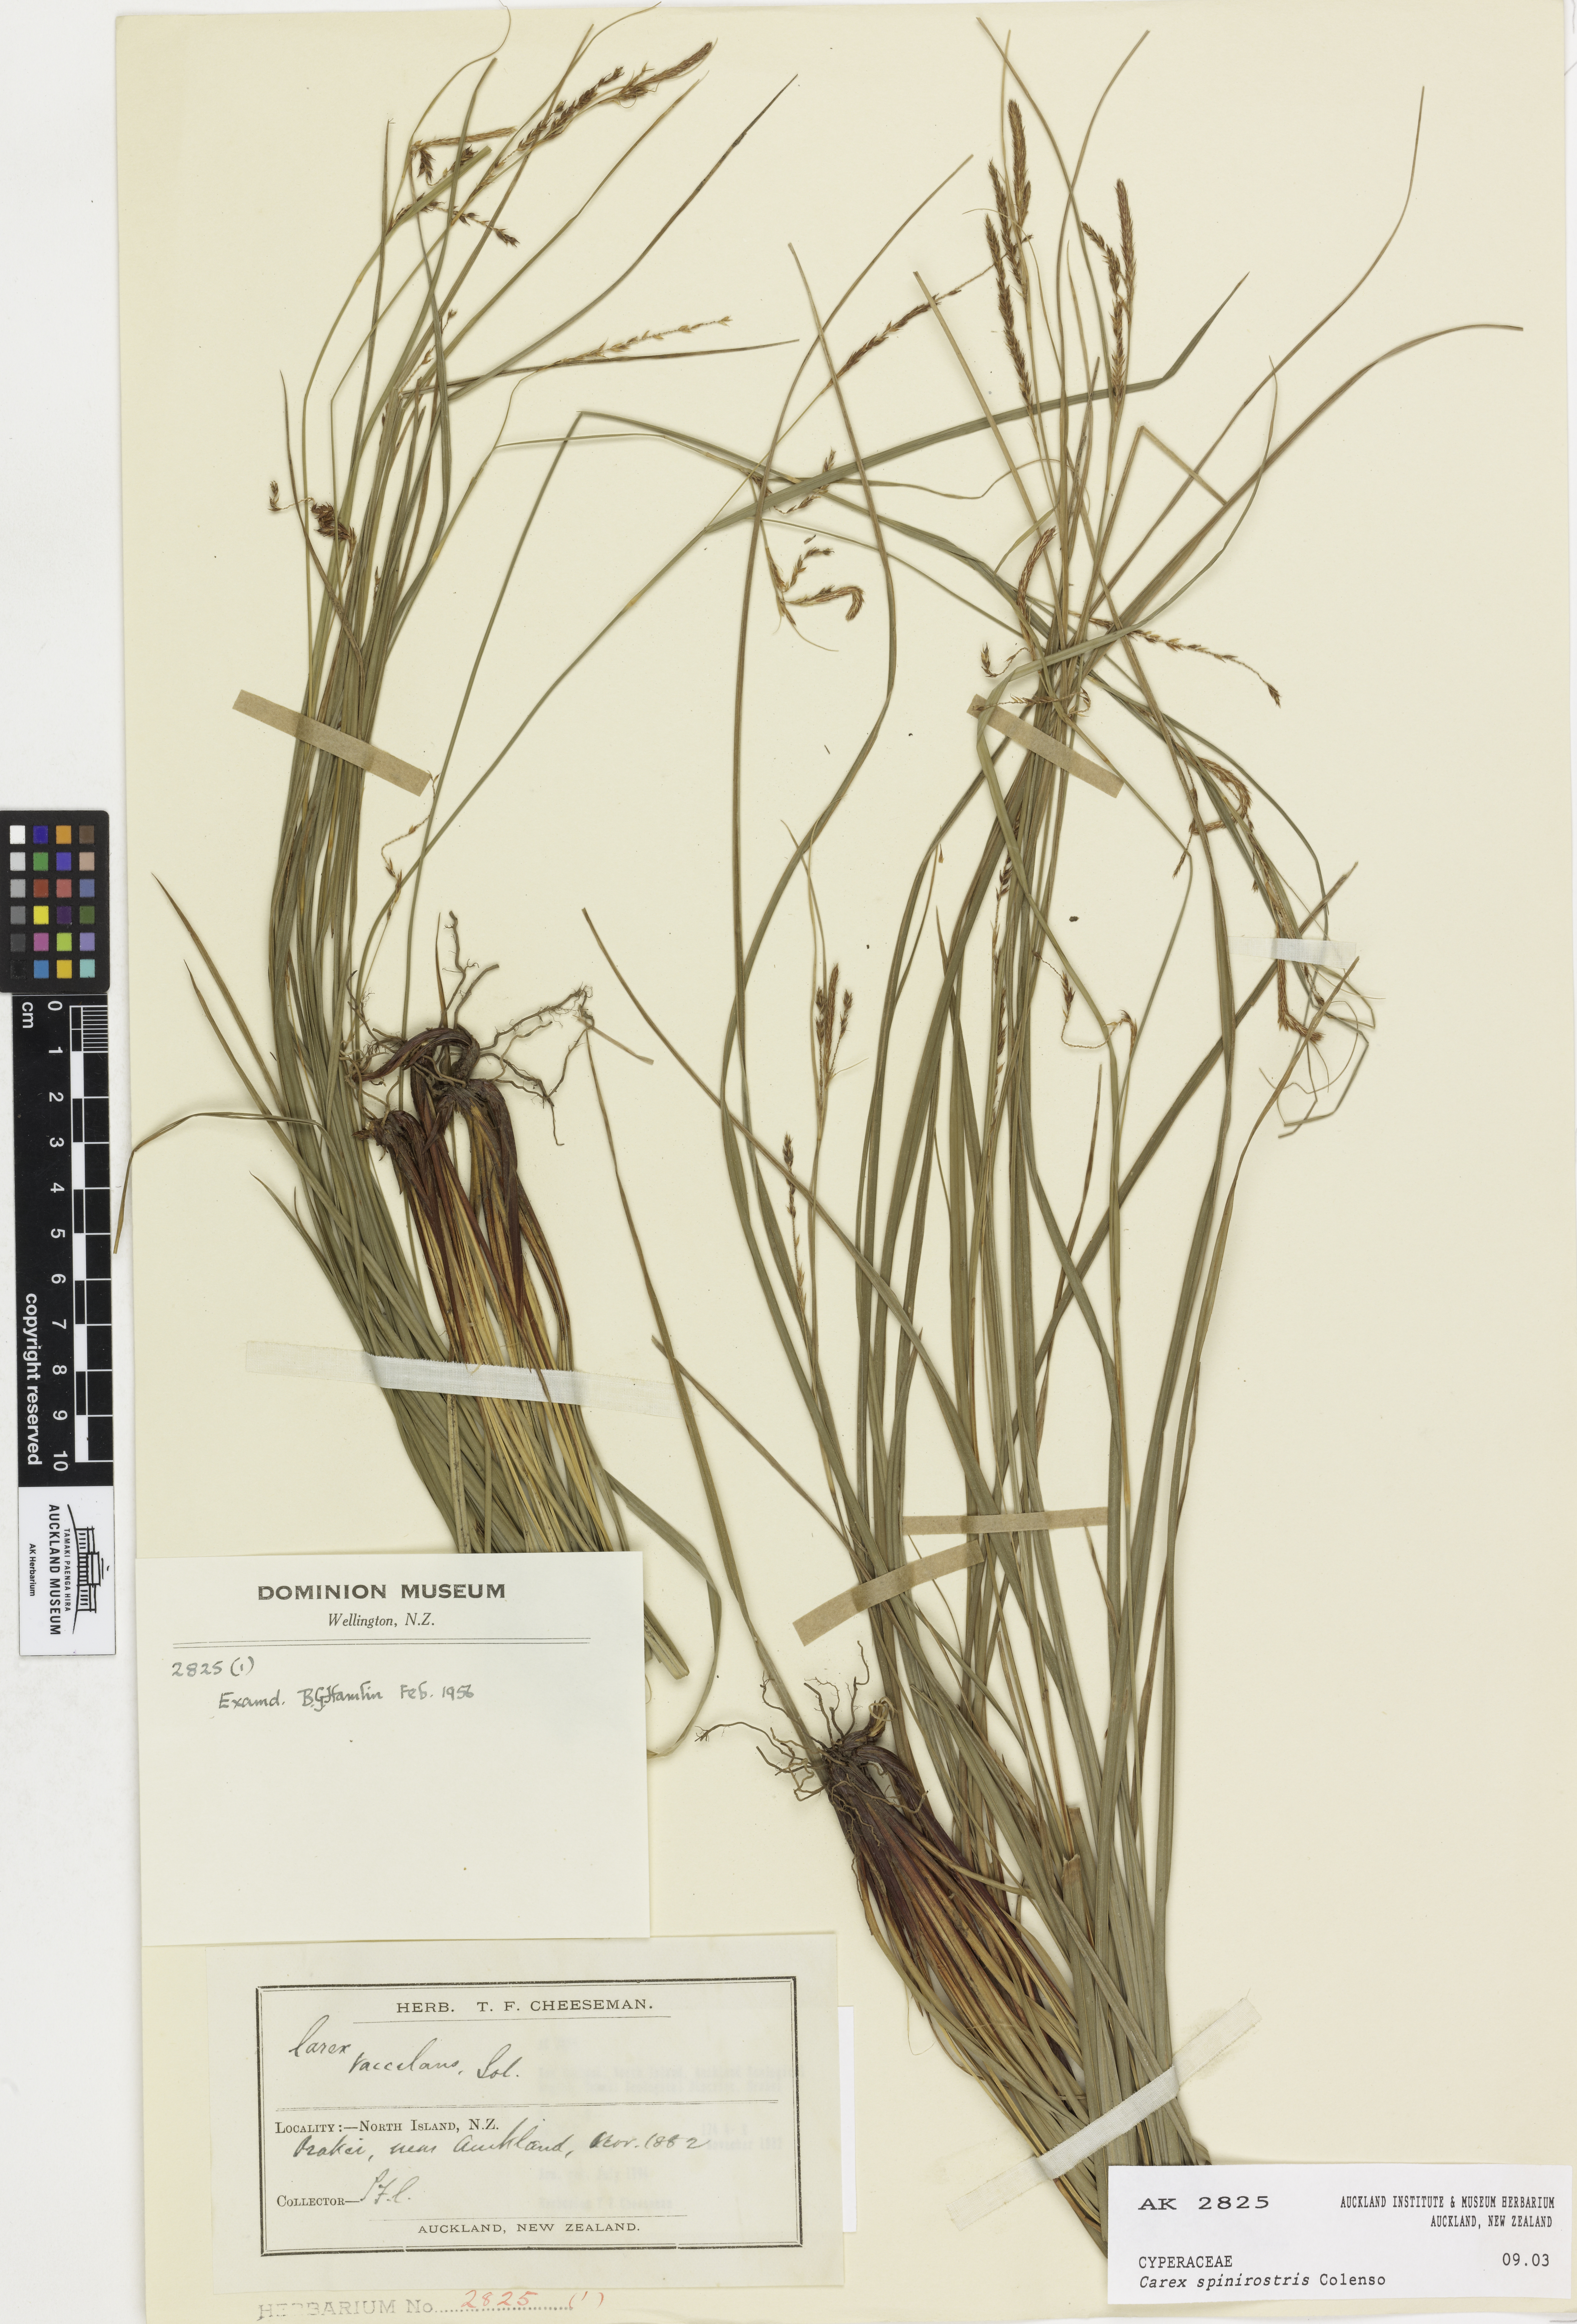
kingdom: Plantae
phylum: Tracheophyta
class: Liliopsida
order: Poales
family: Cyperaceae
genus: Carex
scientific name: Carex spinirostris
